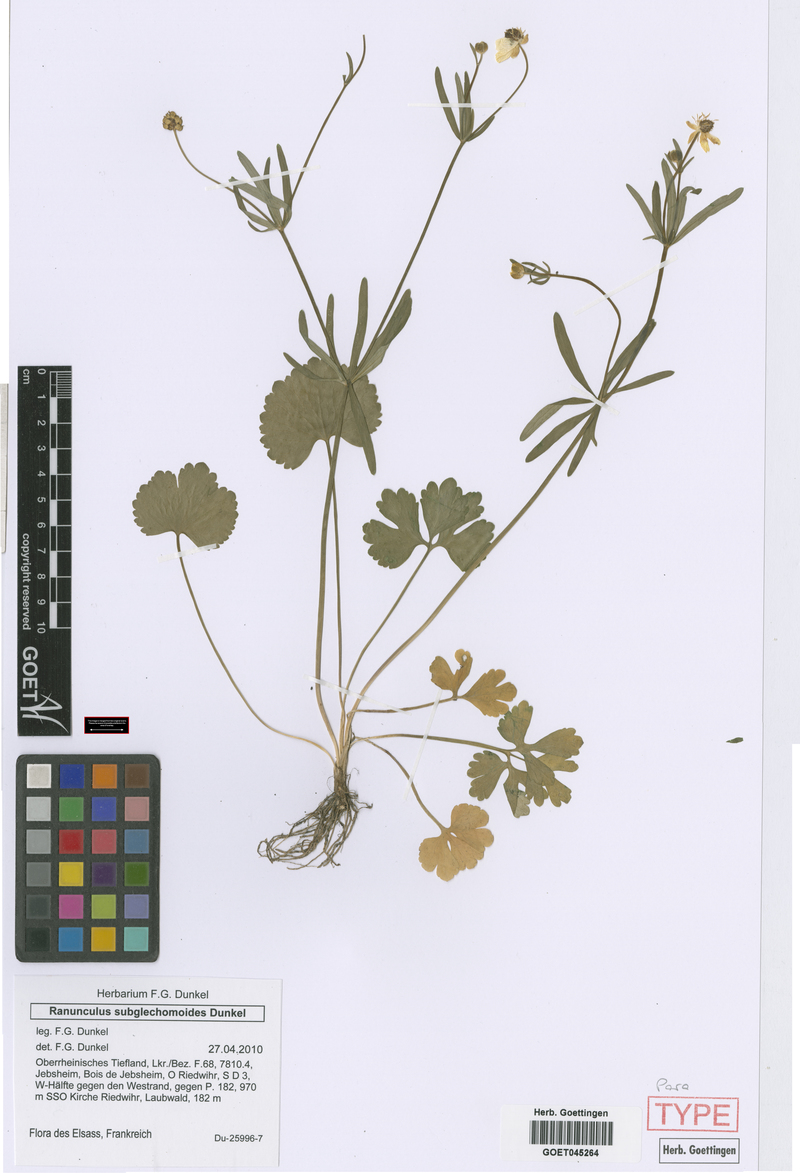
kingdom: Plantae
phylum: Tracheophyta
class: Magnoliopsida
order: Ranunculales
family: Ranunculaceae
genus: Ranunculus
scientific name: Ranunculus subglechomoides
